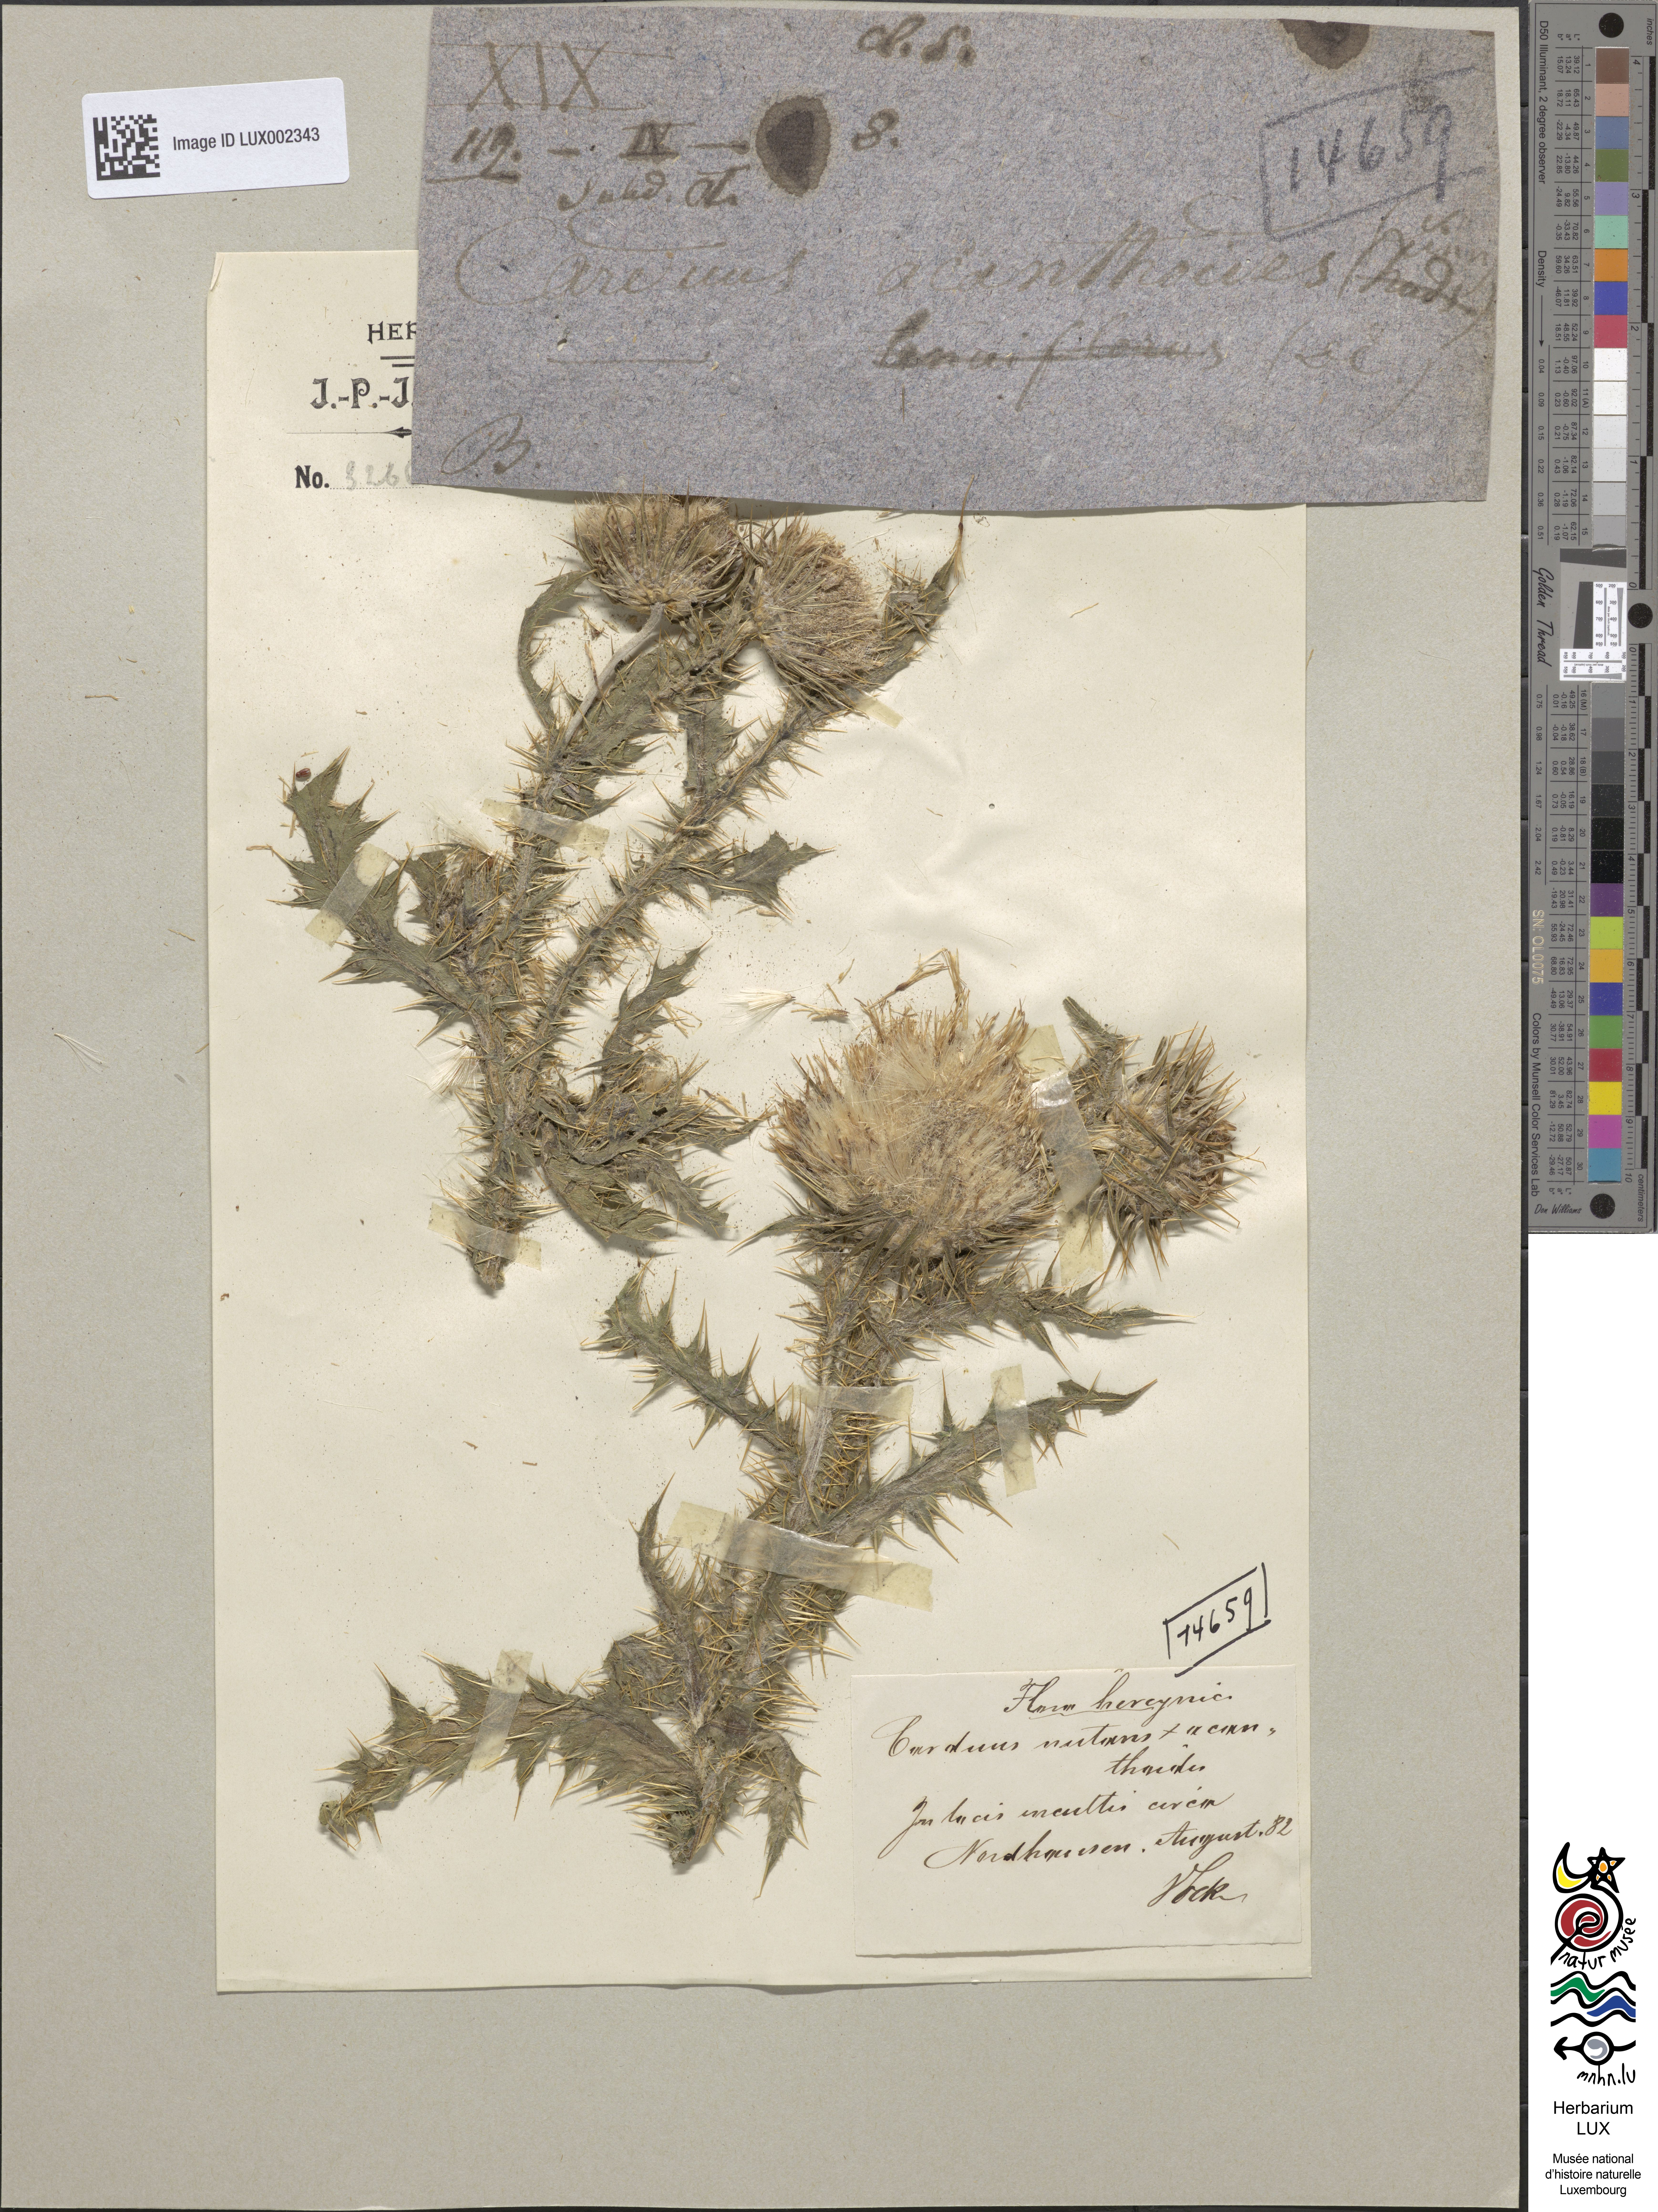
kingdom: Plantae
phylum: Tracheophyta
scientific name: Tracheophyta
